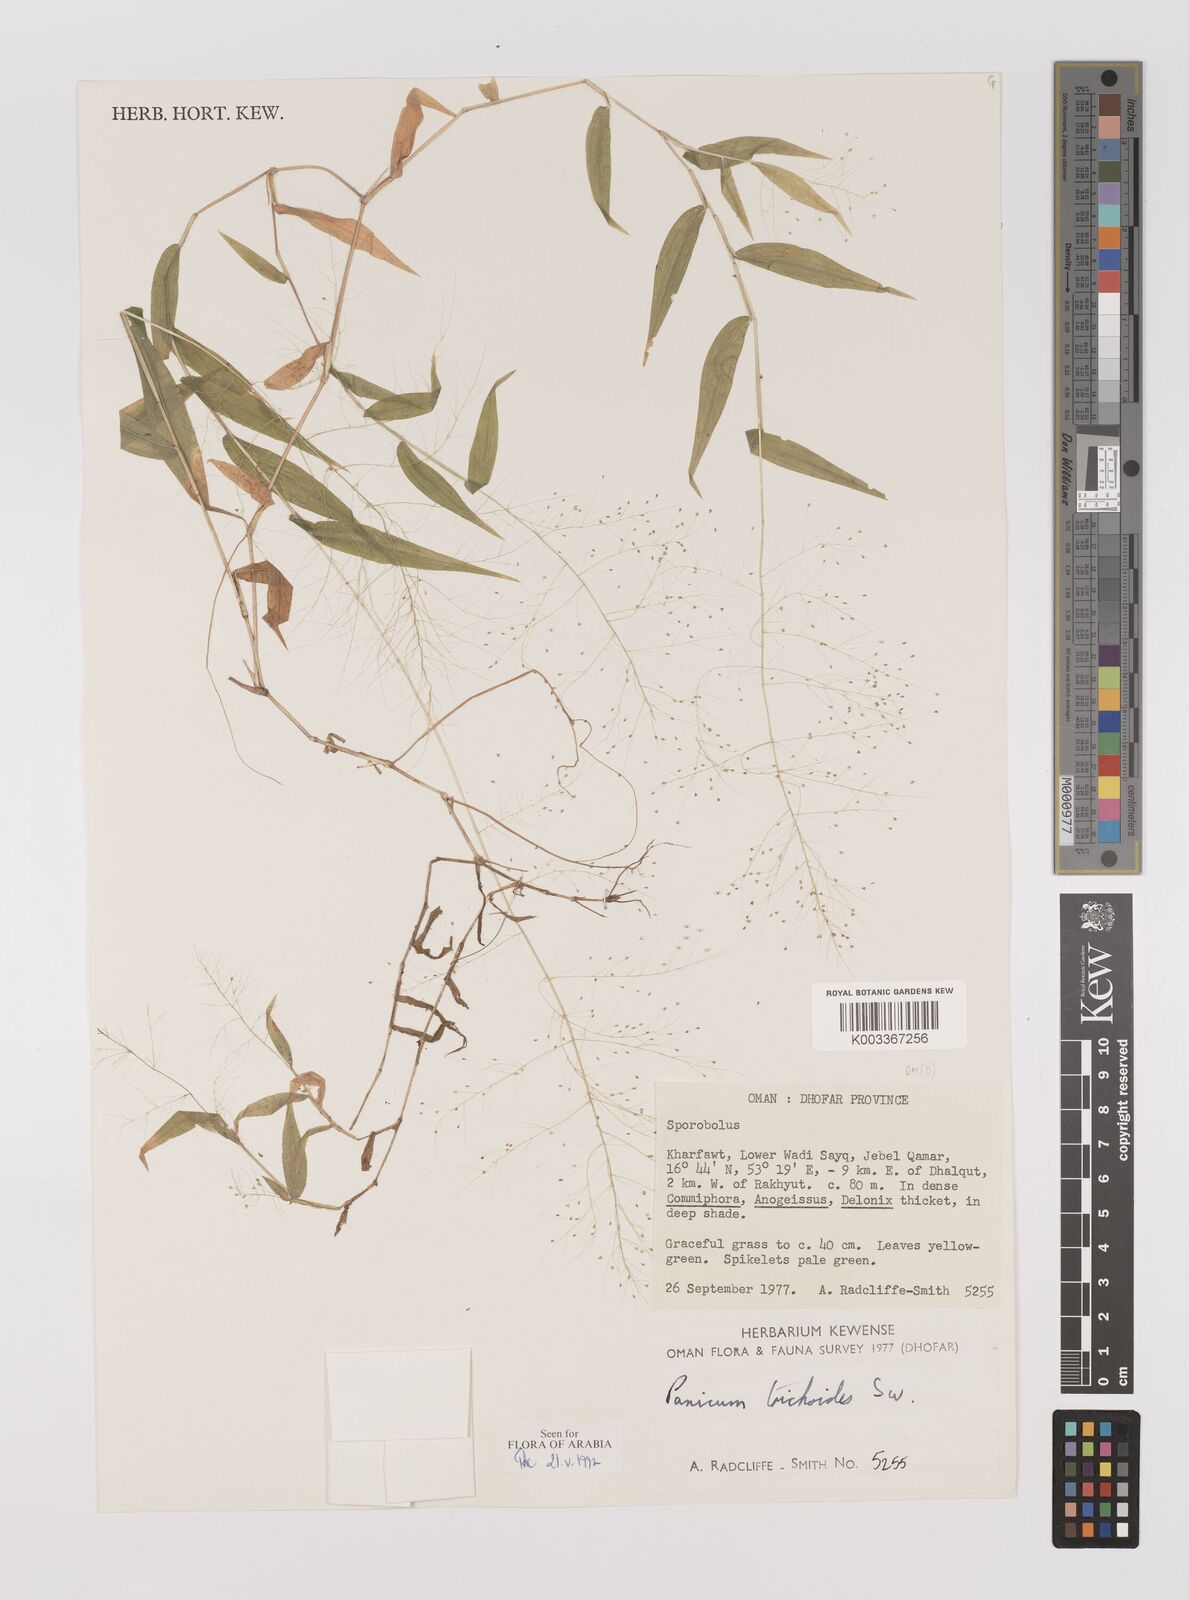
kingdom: Plantae
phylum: Tracheophyta
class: Liliopsida
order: Poales
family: Poaceae
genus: Panicum
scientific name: Panicum trichoides
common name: Tickle grass
